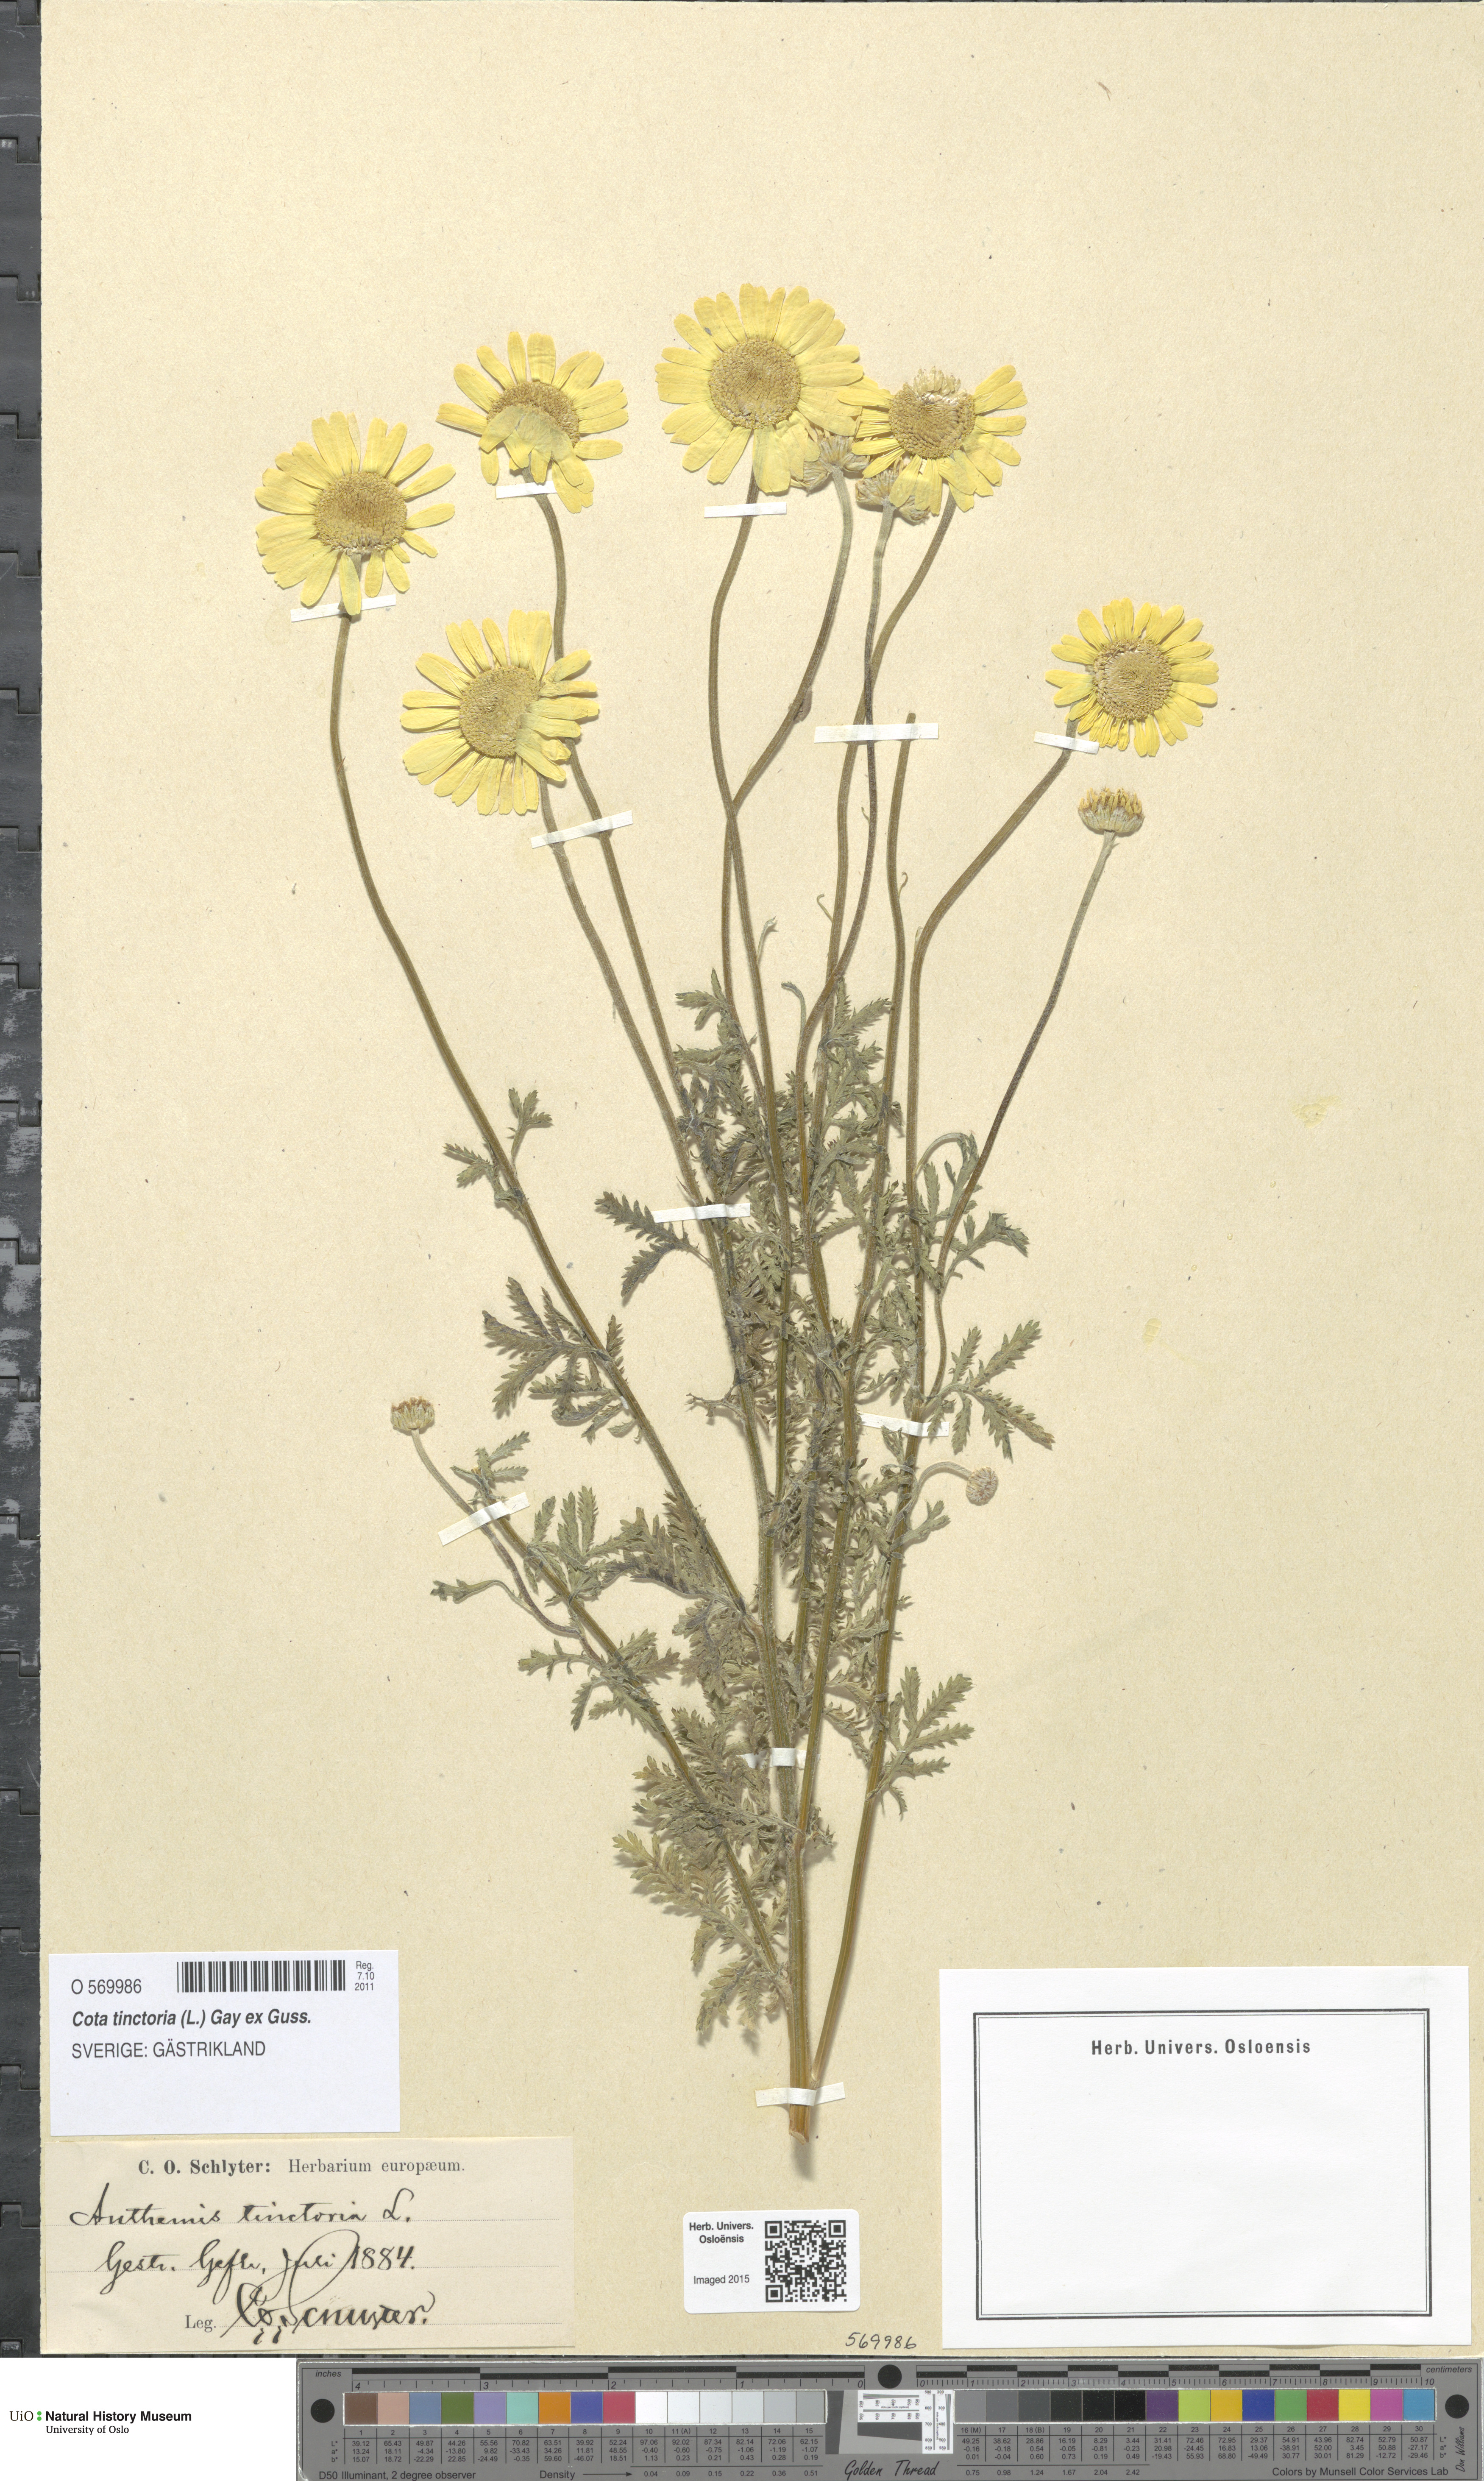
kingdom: Plantae
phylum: Tracheophyta
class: Magnoliopsida
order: Asterales
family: Asteraceae
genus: Cota
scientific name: Cota tinctoria
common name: Golden chamomile
